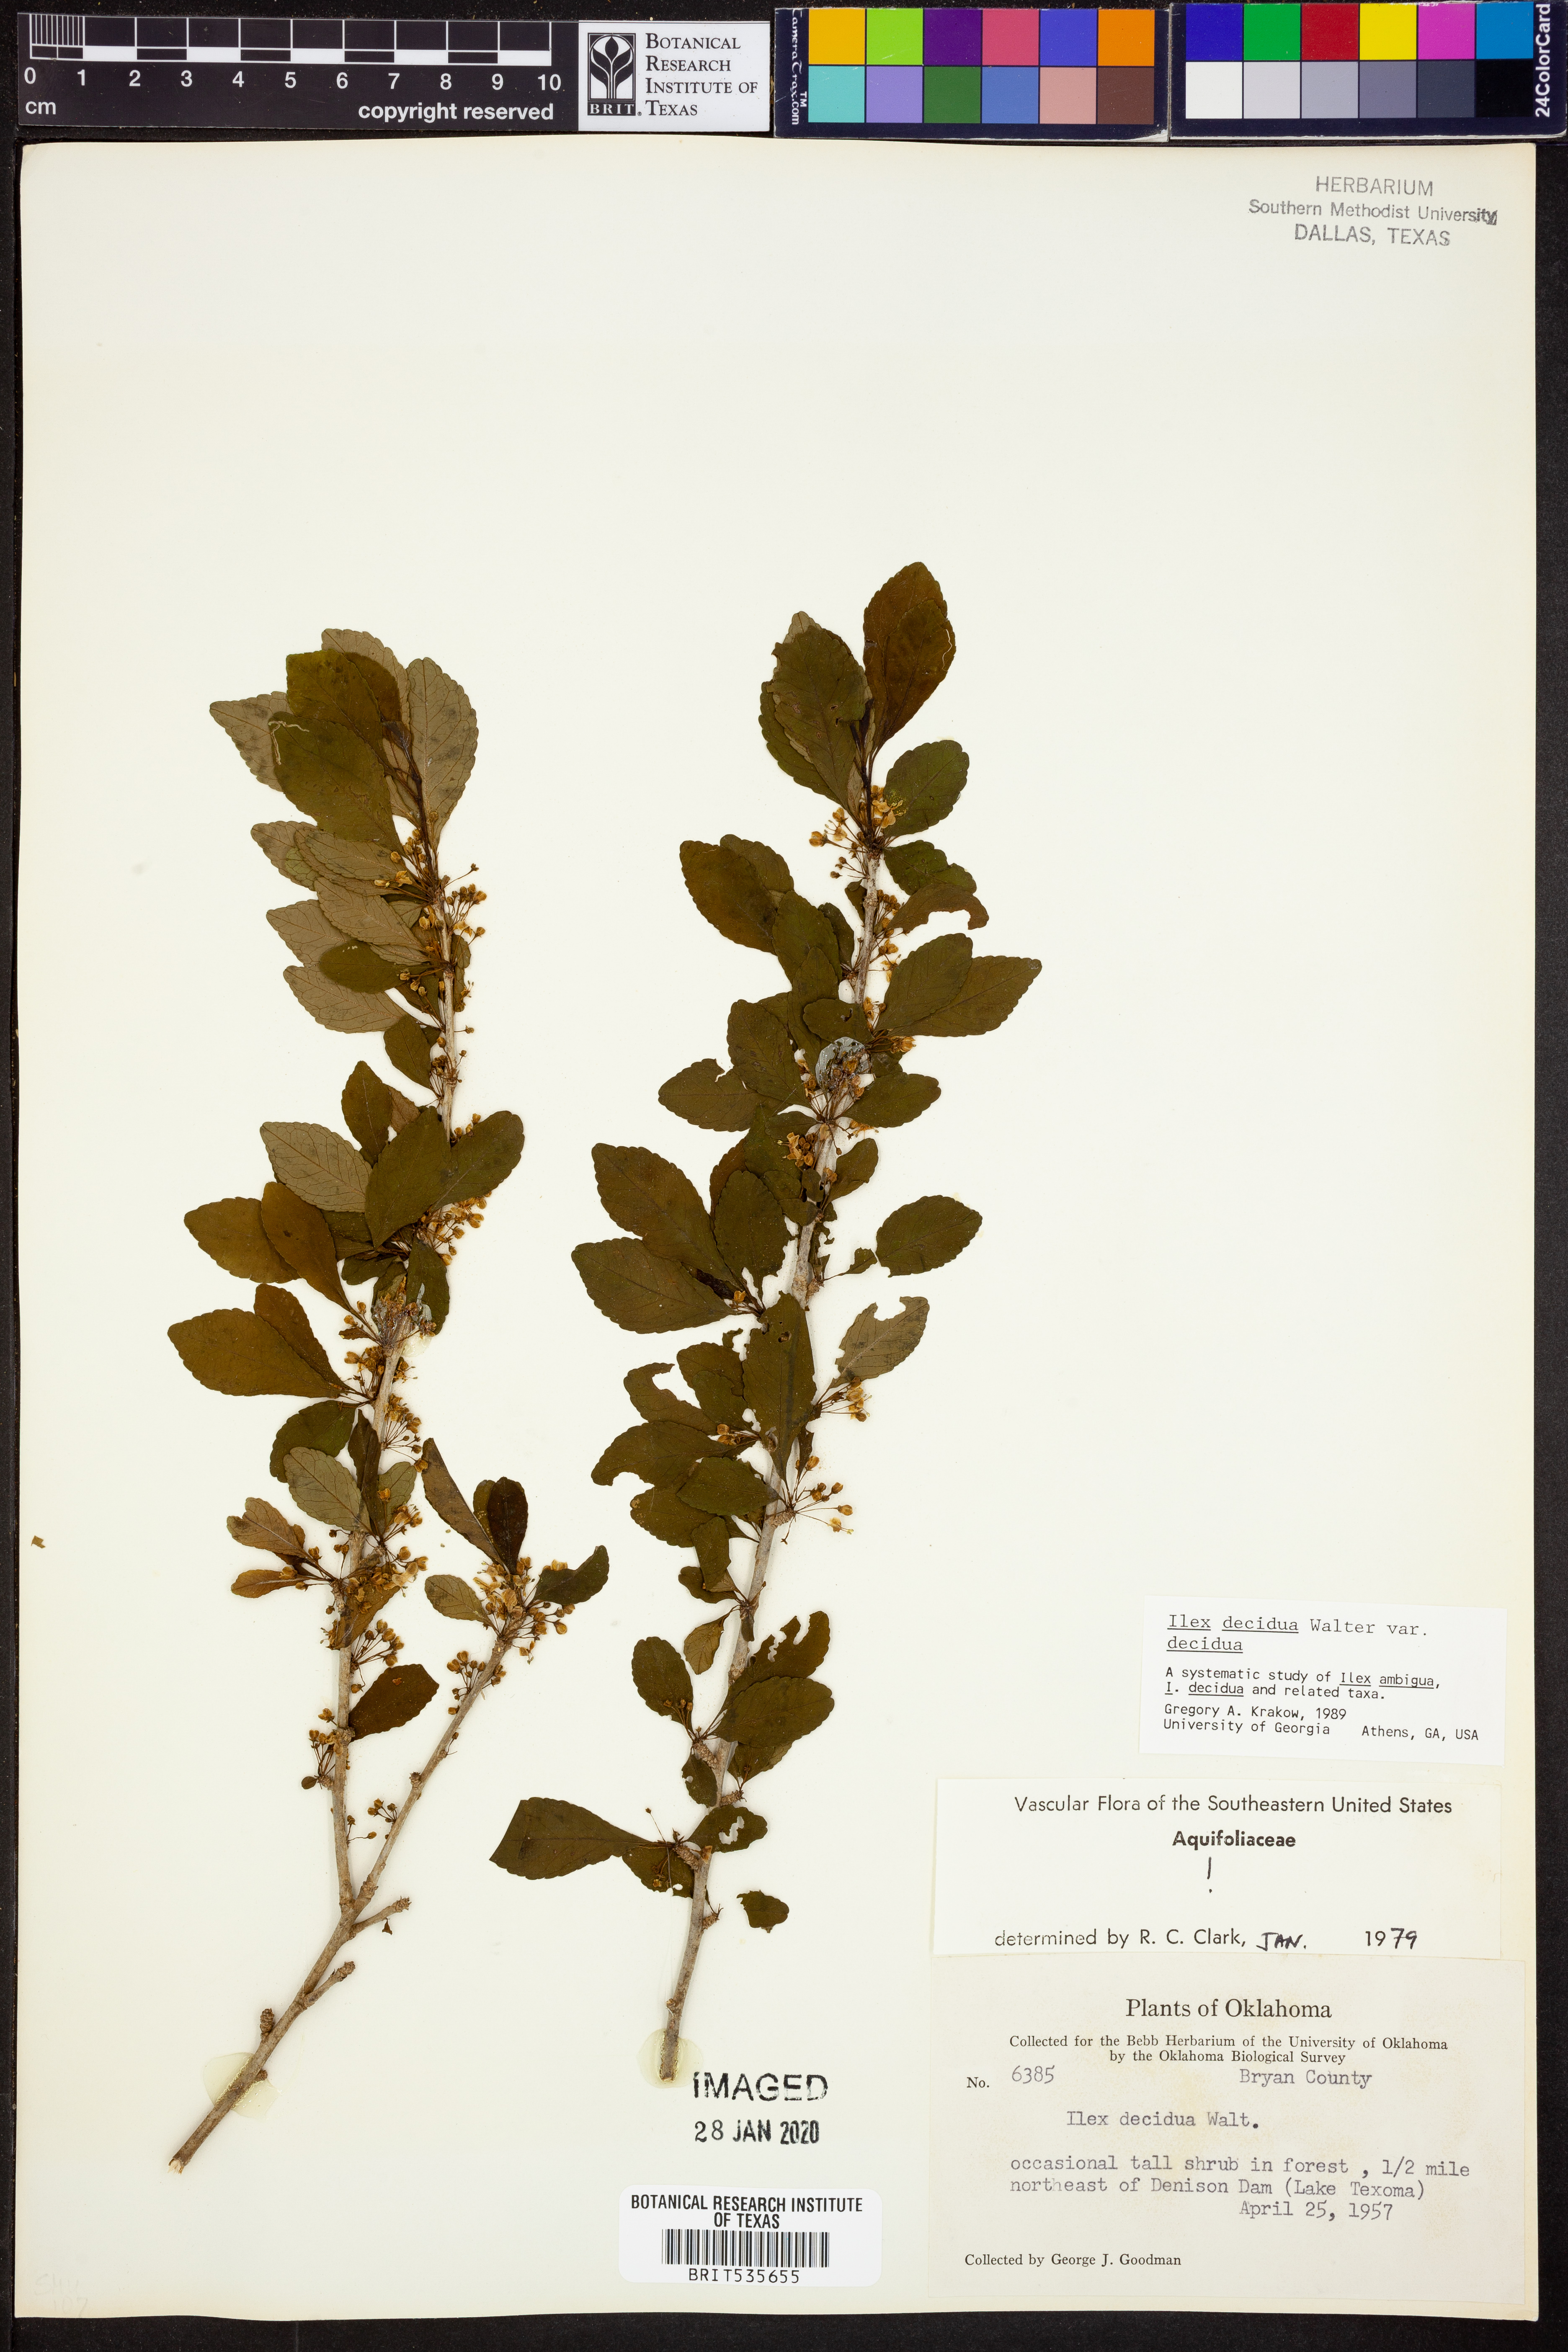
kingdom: Plantae
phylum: Tracheophyta
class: Magnoliopsida
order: Aquifoliales
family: Aquifoliaceae
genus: Ilex
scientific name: Ilex decidua
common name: Possum-haw
